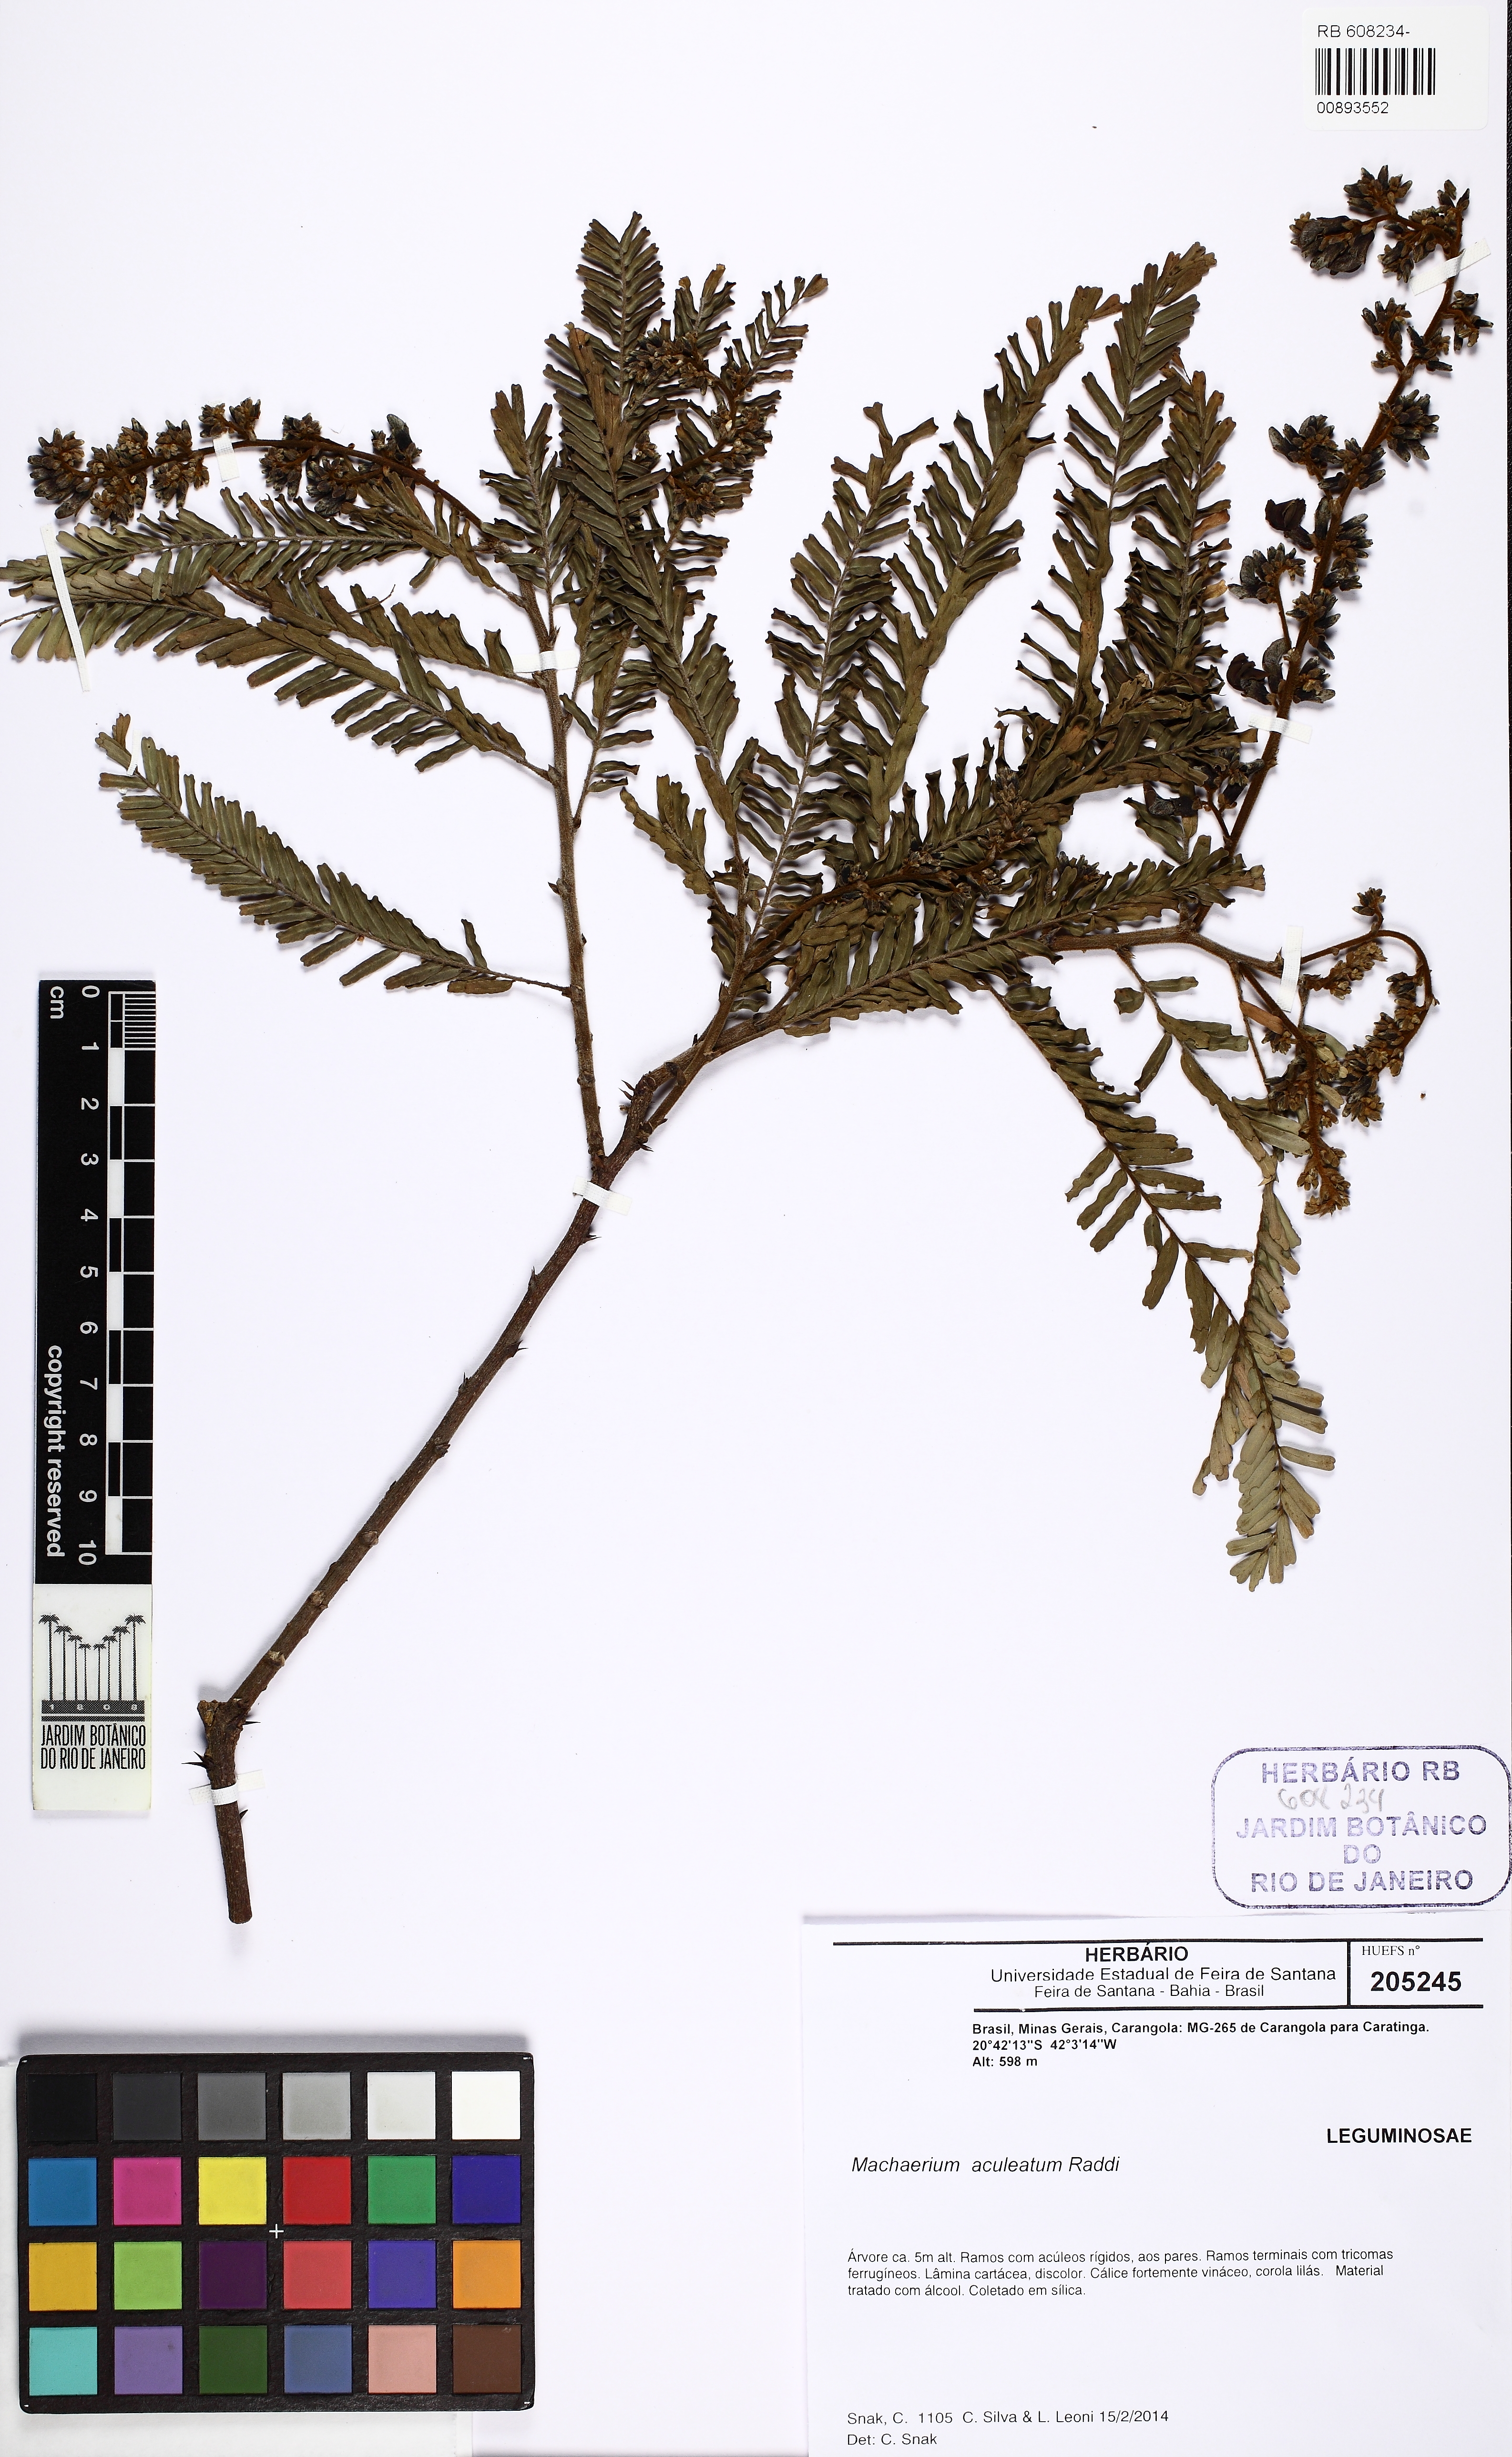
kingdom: Plantae
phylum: Tracheophyta
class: Magnoliopsida
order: Fabales
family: Fabaceae
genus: Machaerium
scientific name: Machaerium hirtum
